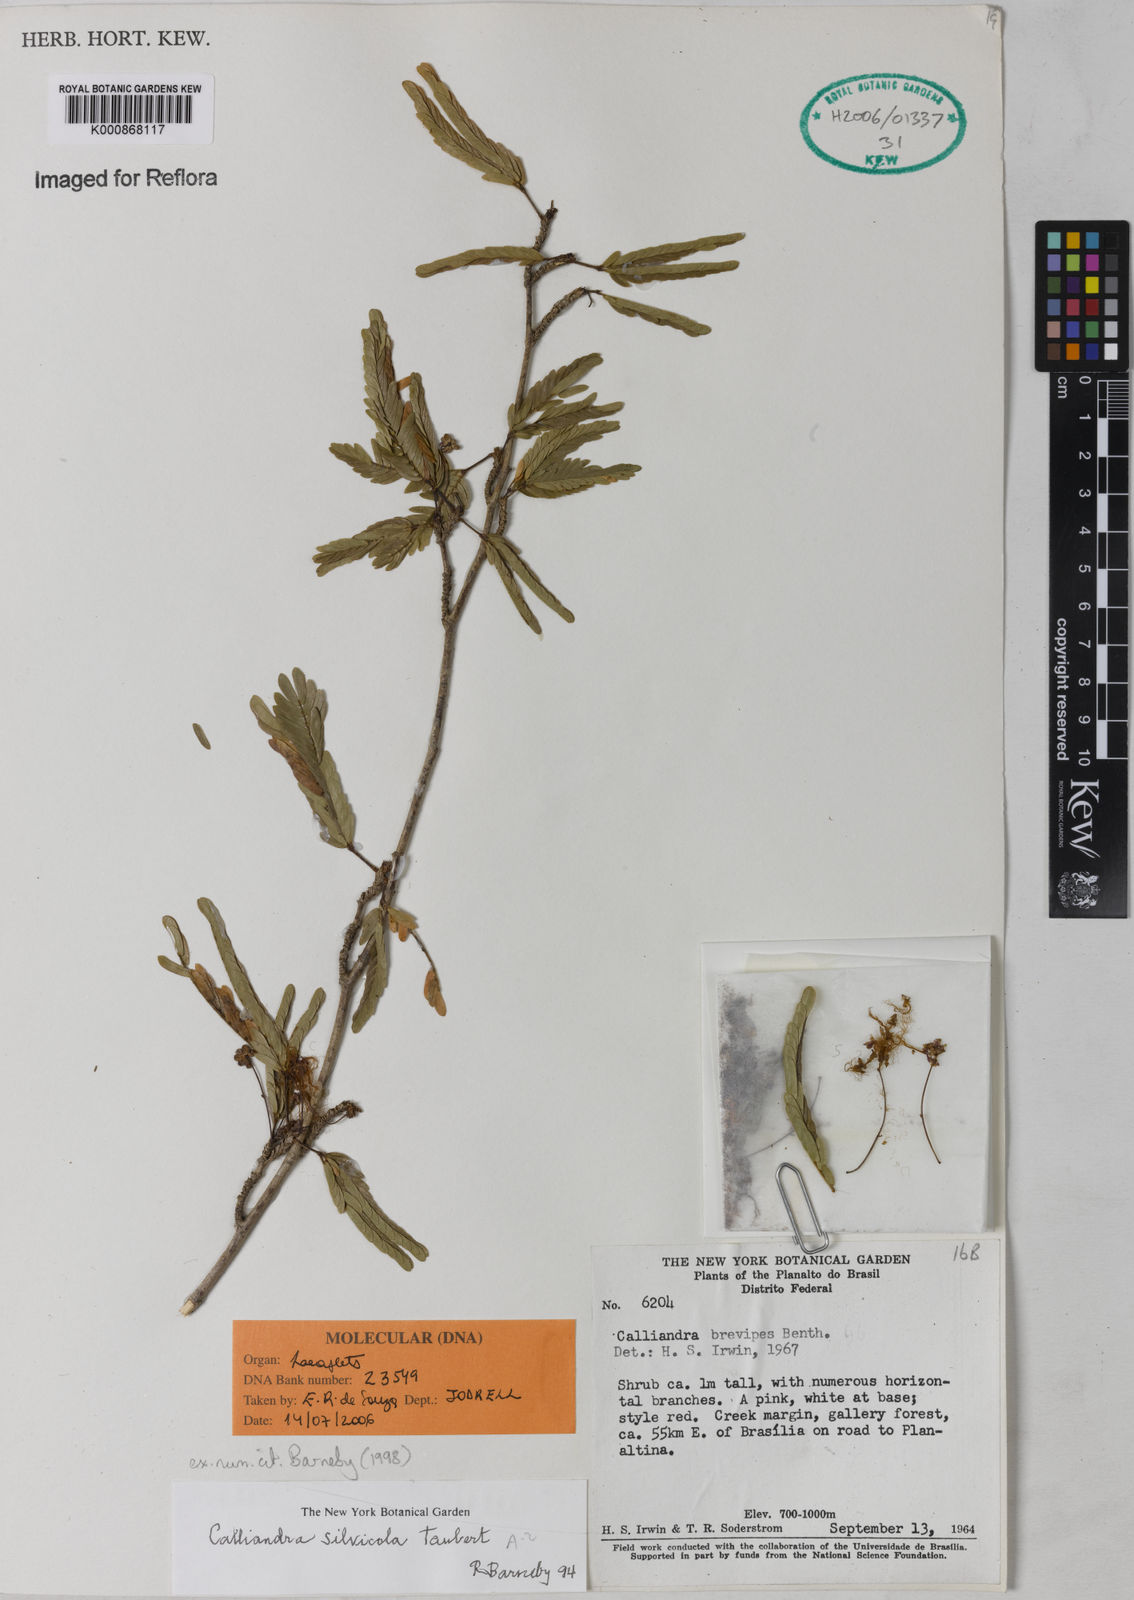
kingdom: Plantae
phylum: Tracheophyta
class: Magnoliopsida
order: Fabales
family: Fabaceae
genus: Calliandra
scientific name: Calliandra silvicola
